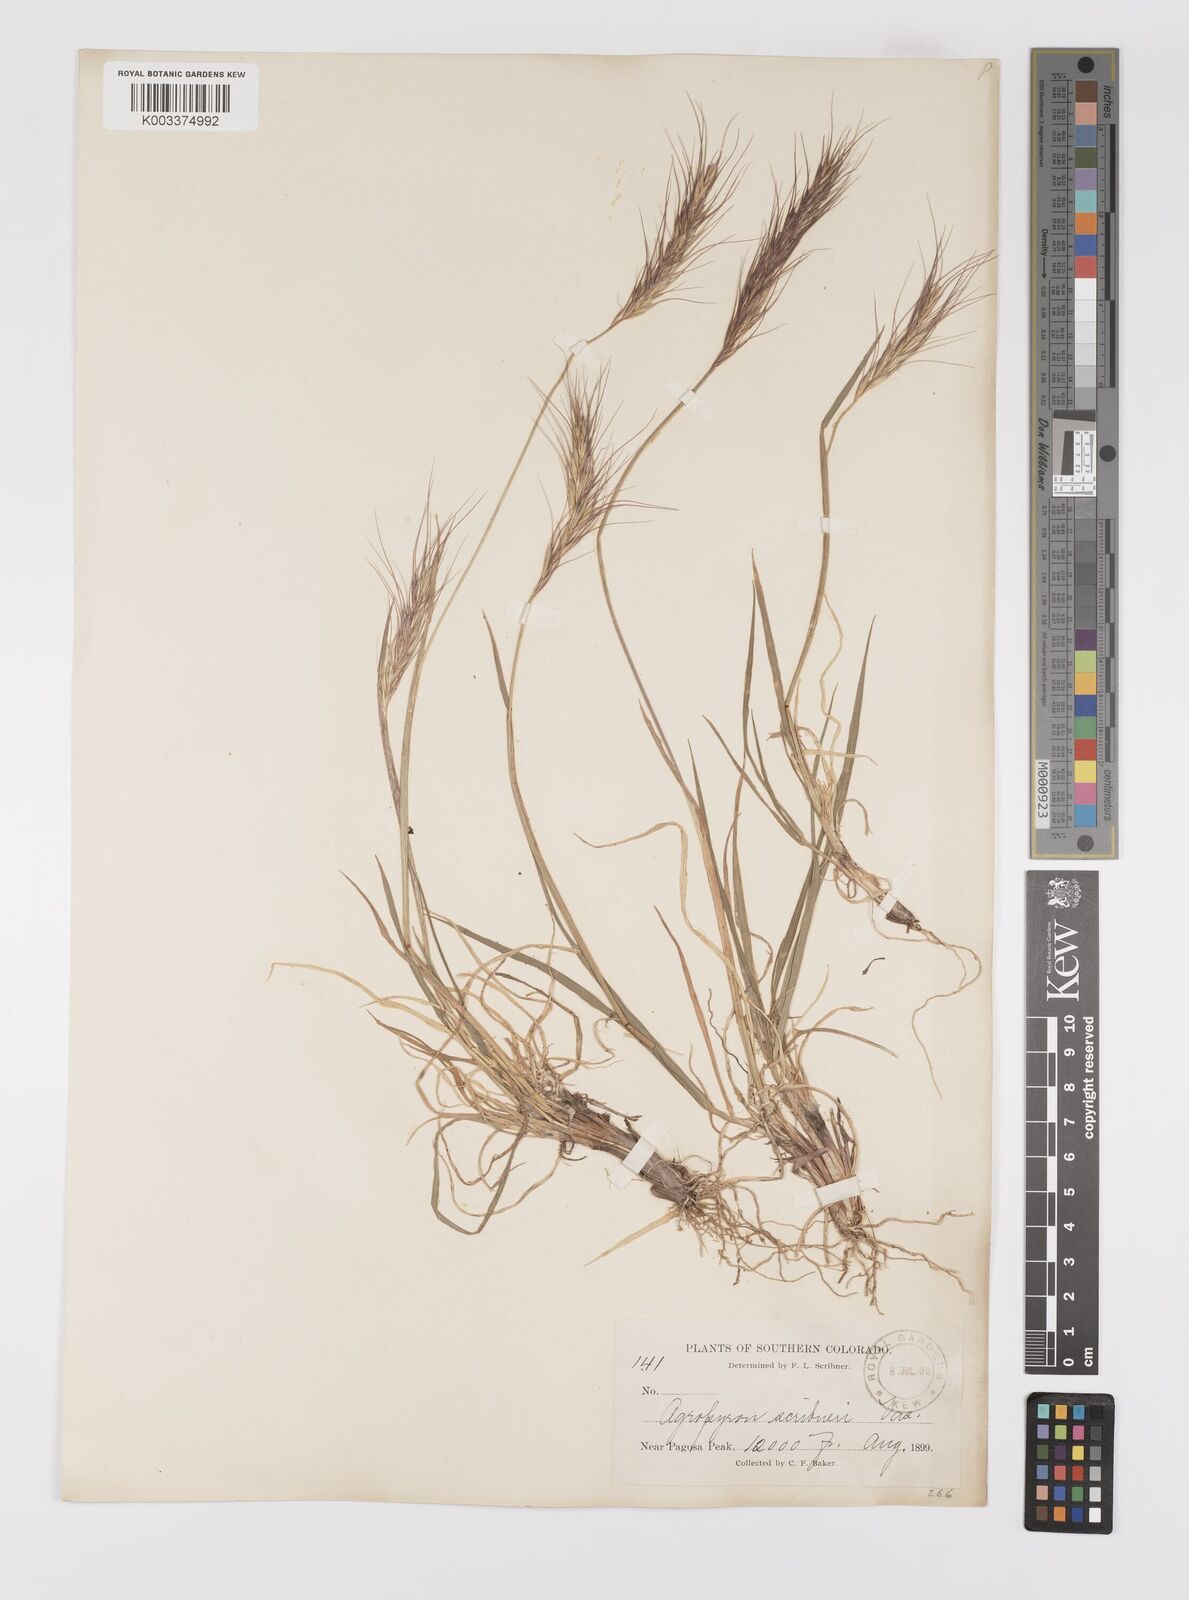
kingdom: Plantae
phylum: Tracheophyta
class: Liliopsida
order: Poales
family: Poaceae
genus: Elymus
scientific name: Elymus scribneri
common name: Scribner's wheatgrass
